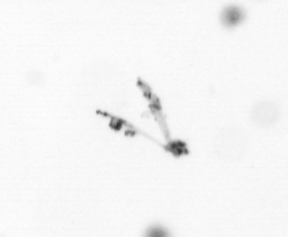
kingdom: Chromista
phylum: Myzozoa
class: Dinophyceae
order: Gonyaulacales
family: Ceratiaceae
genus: Ceratium
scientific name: Ceratium
